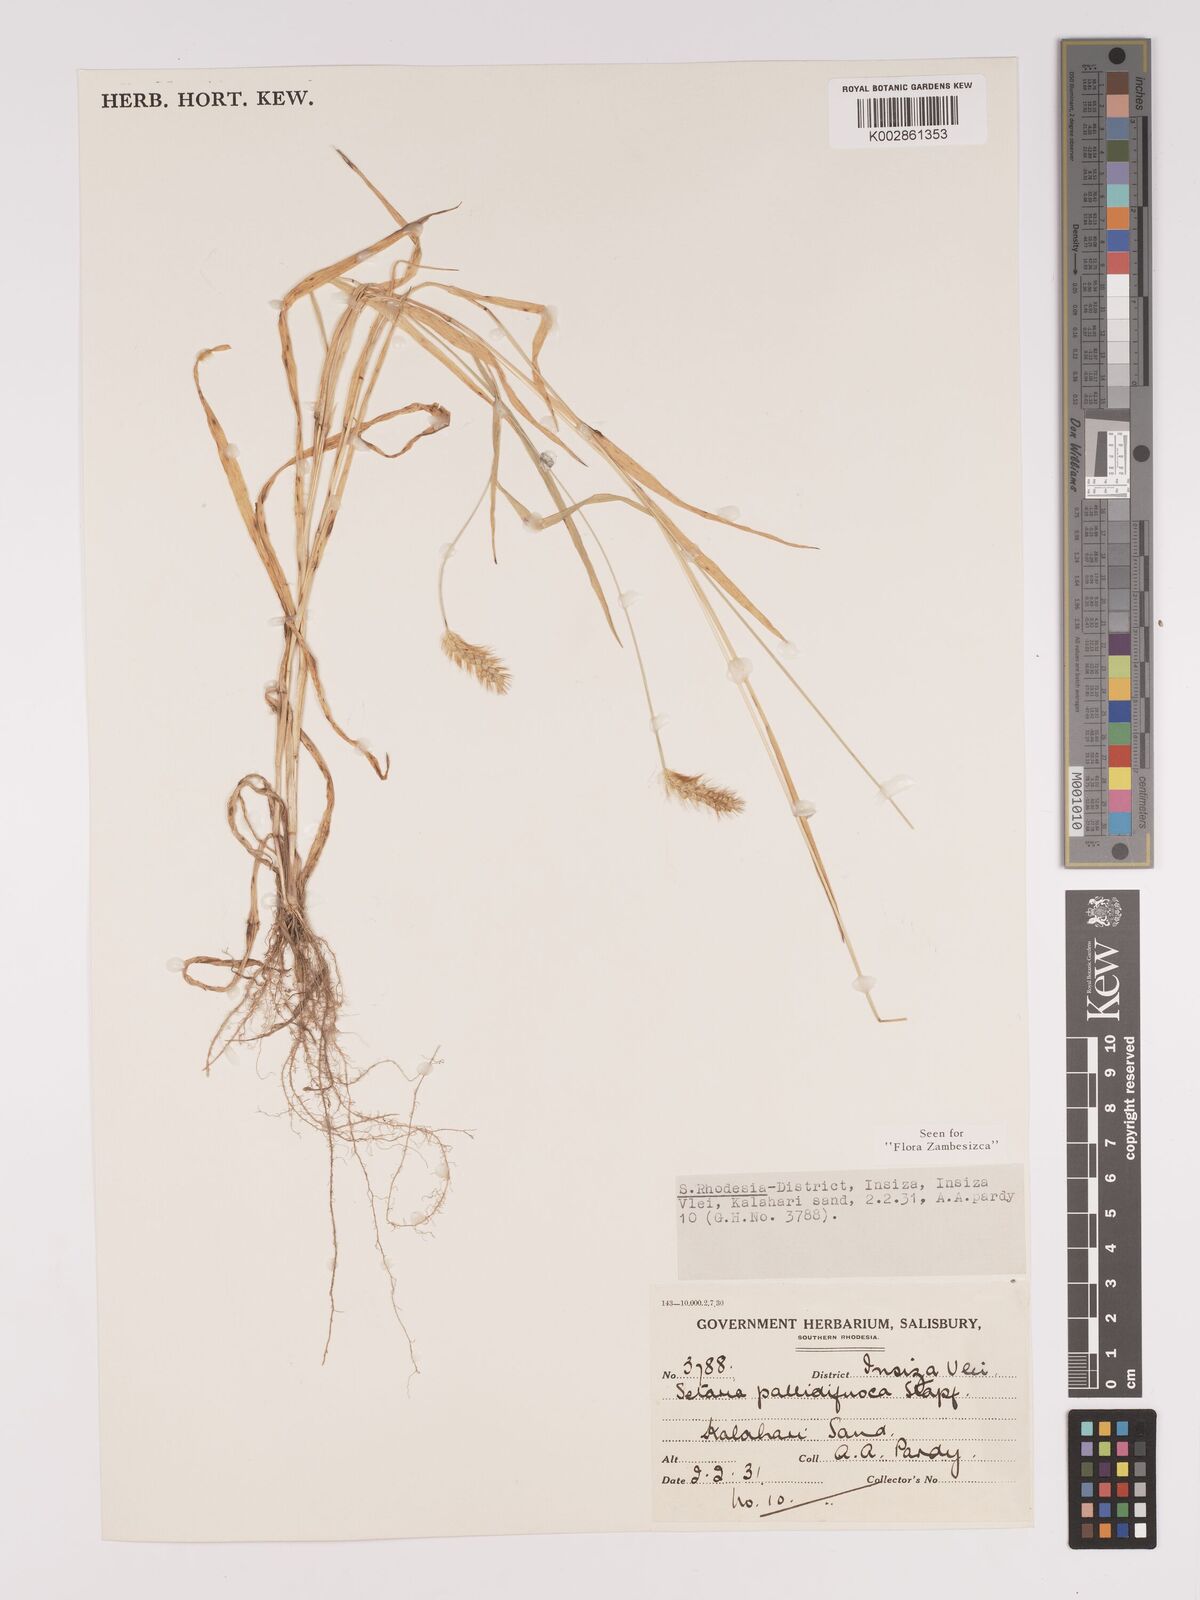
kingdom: Plantae
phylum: Tracheophyta
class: Liliopsida
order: Poales
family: Poaceae
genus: Setaria
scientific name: Setaria pumila
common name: Yellow bristle-grass
